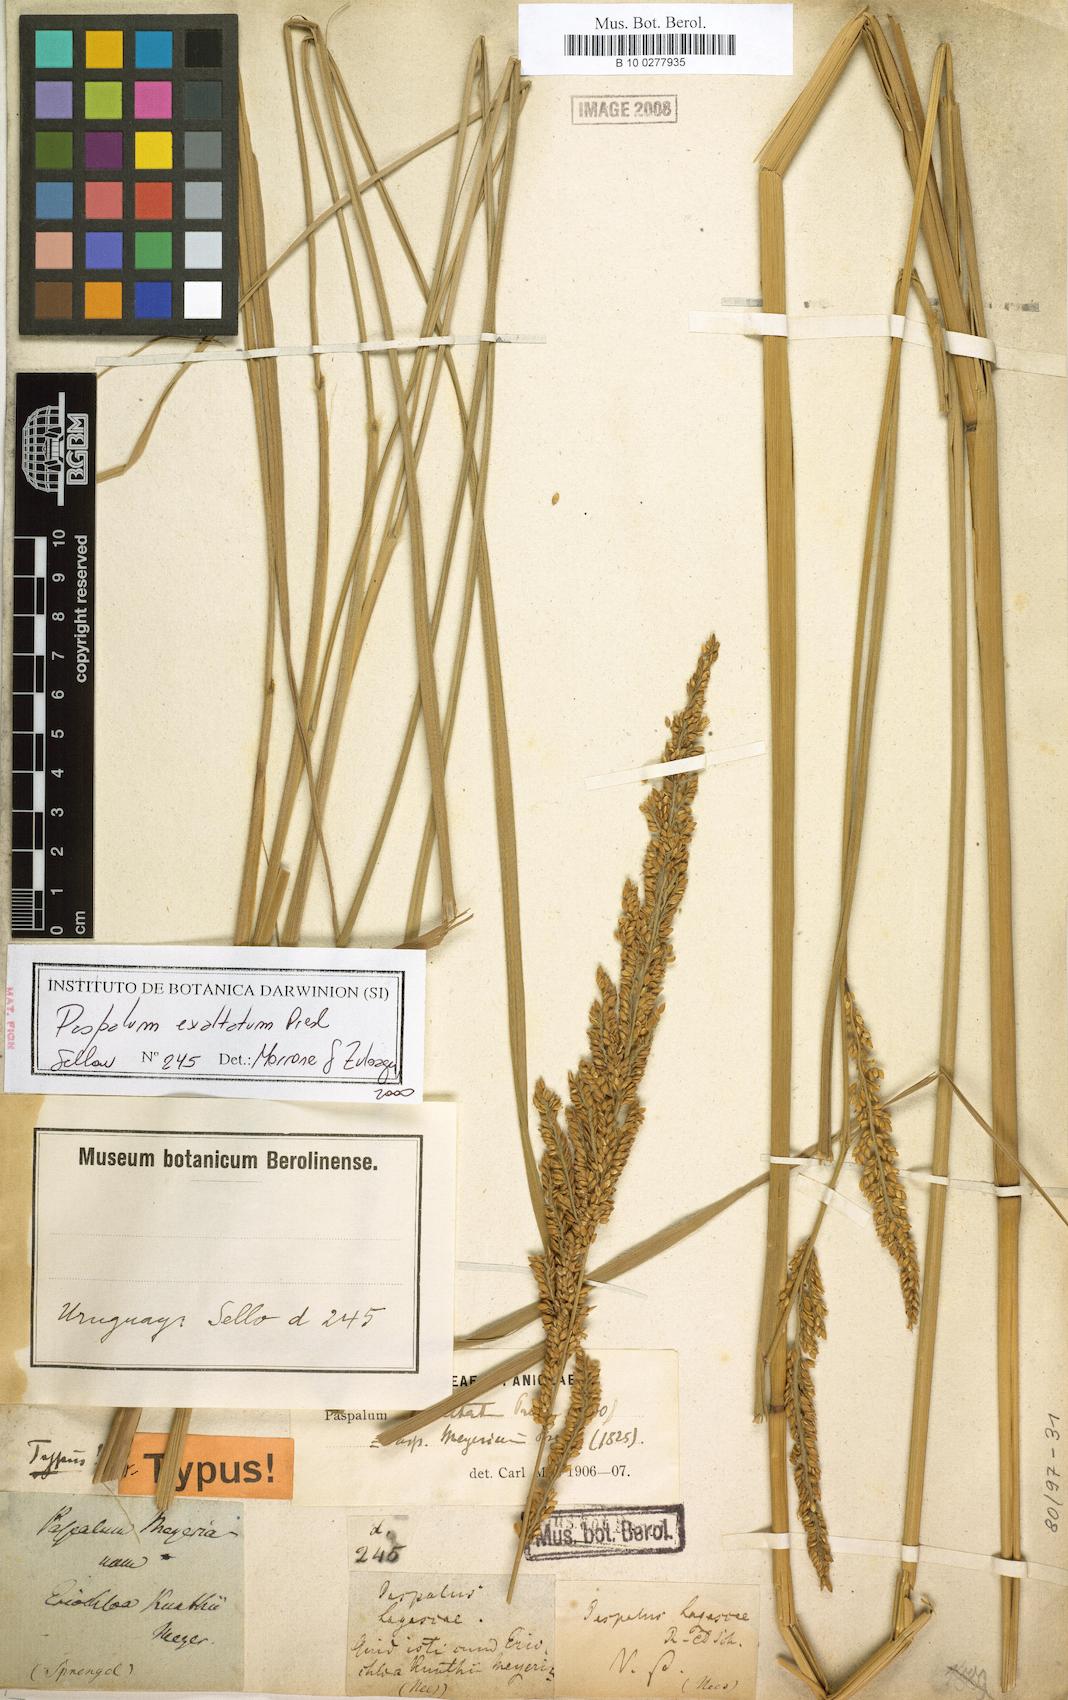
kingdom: Plantae
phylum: Tracheophyta
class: Liliopsida
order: Poales
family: Poaceae
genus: Paspalum
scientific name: Paspalum exaltatum
